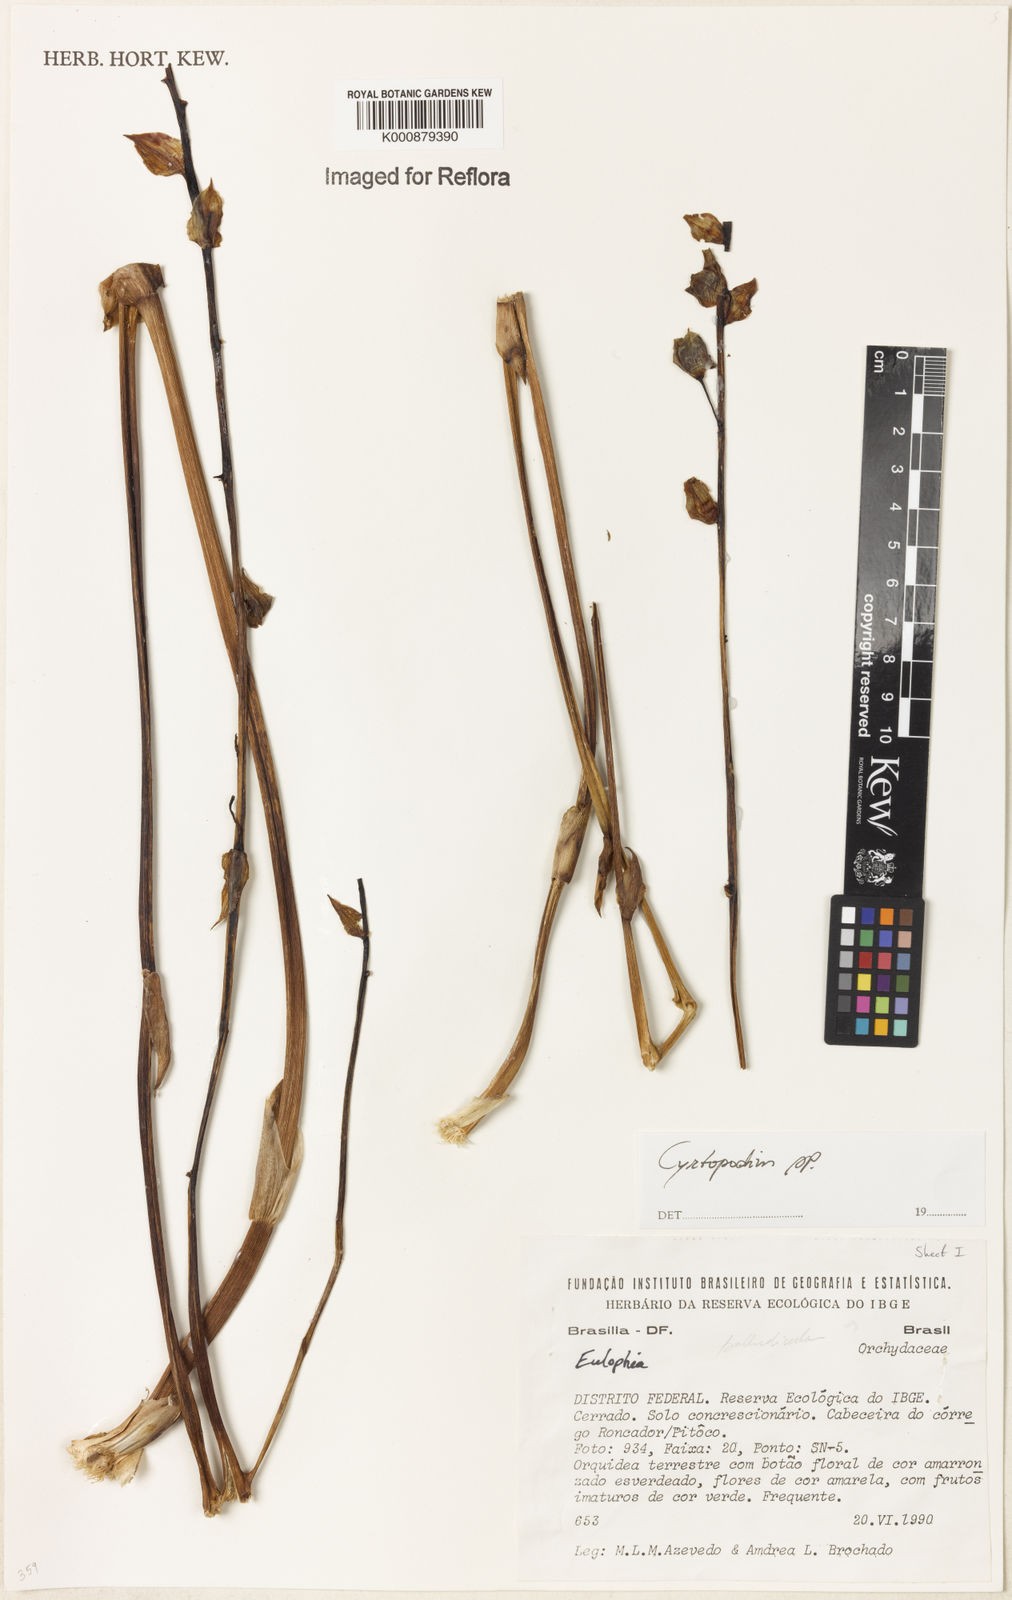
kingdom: Plantae
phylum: Tracheophyta
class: Liliopsida
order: Asparagales
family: Orchidaceae
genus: Cyrtopodium
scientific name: Cyrtopodium
